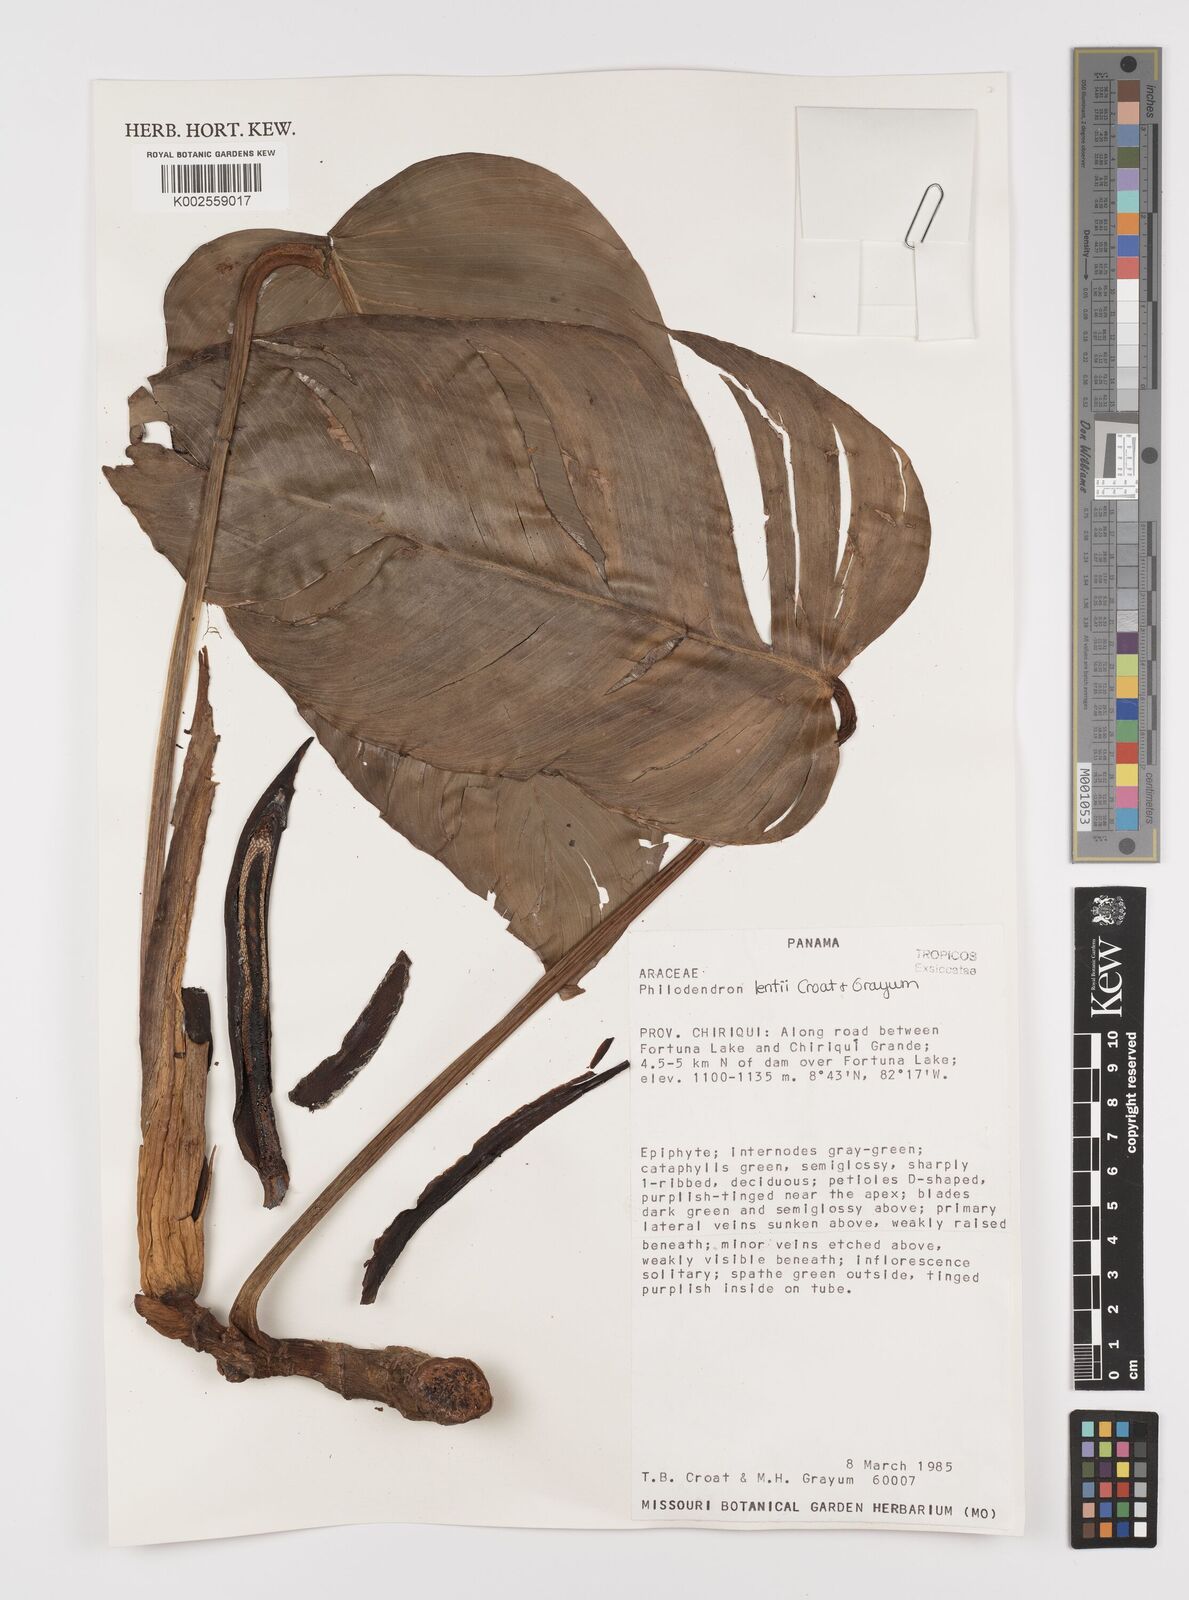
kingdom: Plantae
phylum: Tracheophyta
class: Liliopsida
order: Alismatales
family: Araceae
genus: Philodendron
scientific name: Philodendron lentii
